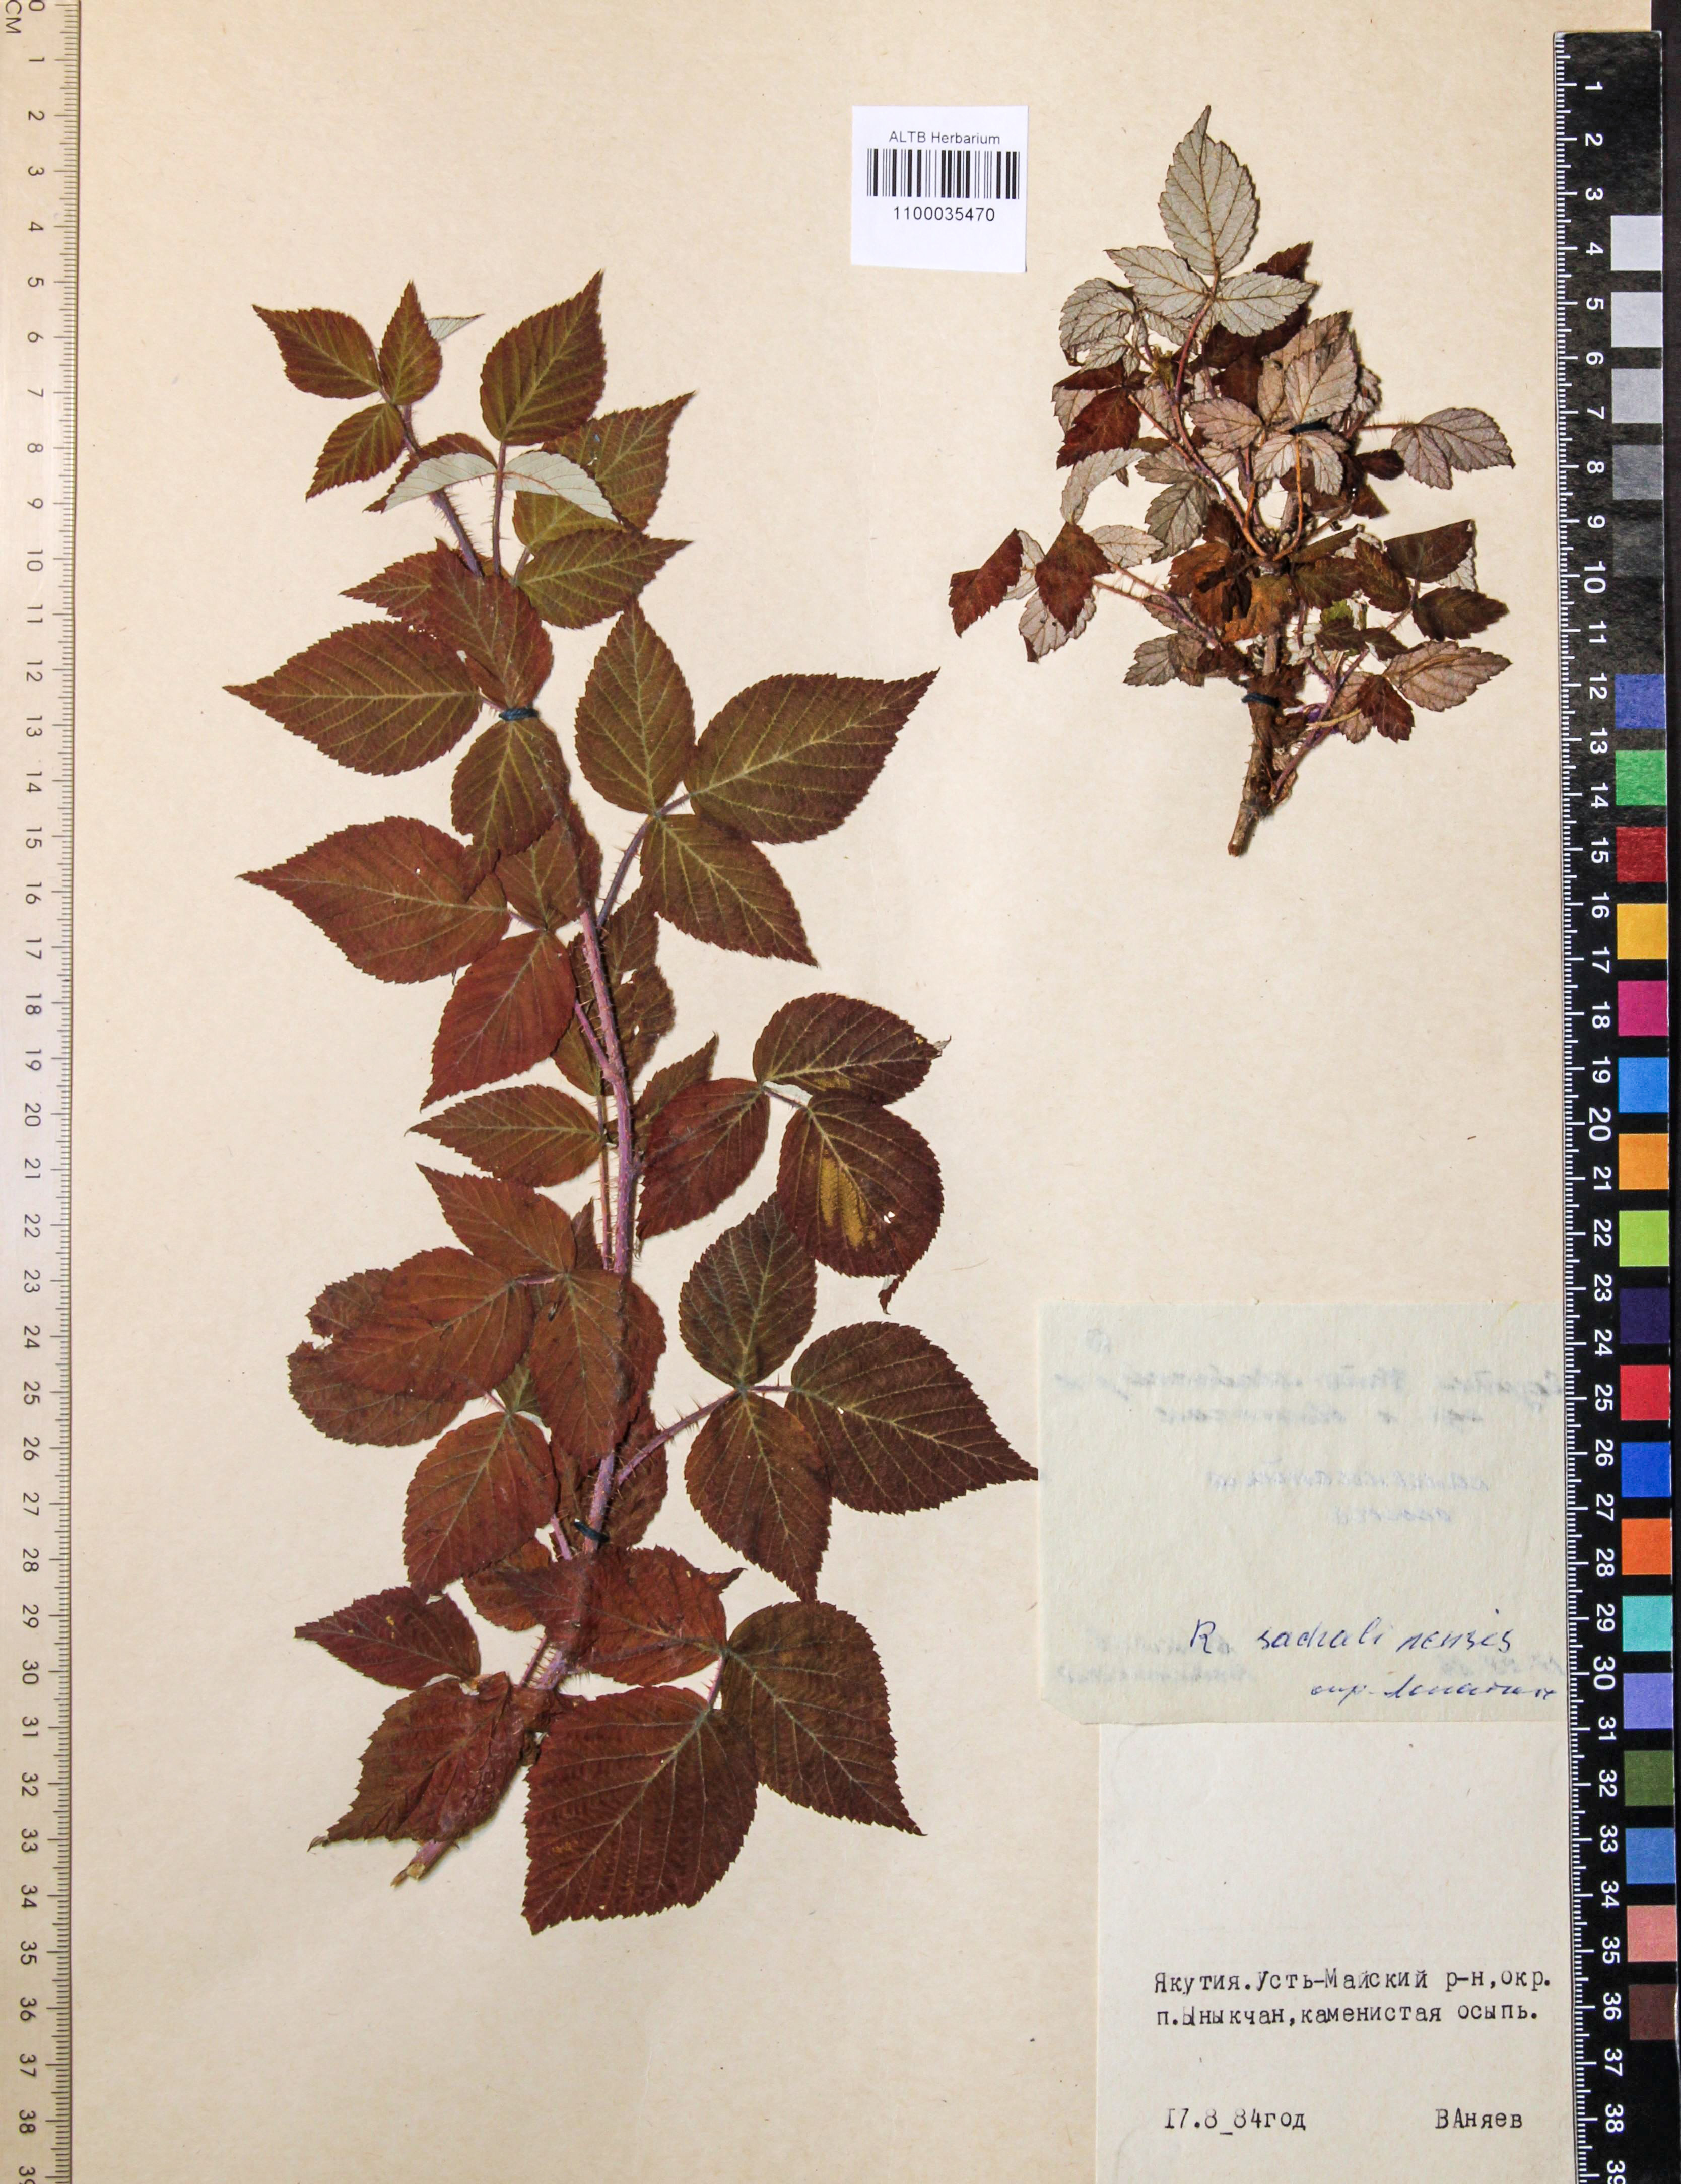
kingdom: Plantae
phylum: Tracheophyta
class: Magnoliopsida
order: Rosales
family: Rosaceae
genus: Rubus
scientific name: Rubus sachalinensis
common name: Red raspberry
